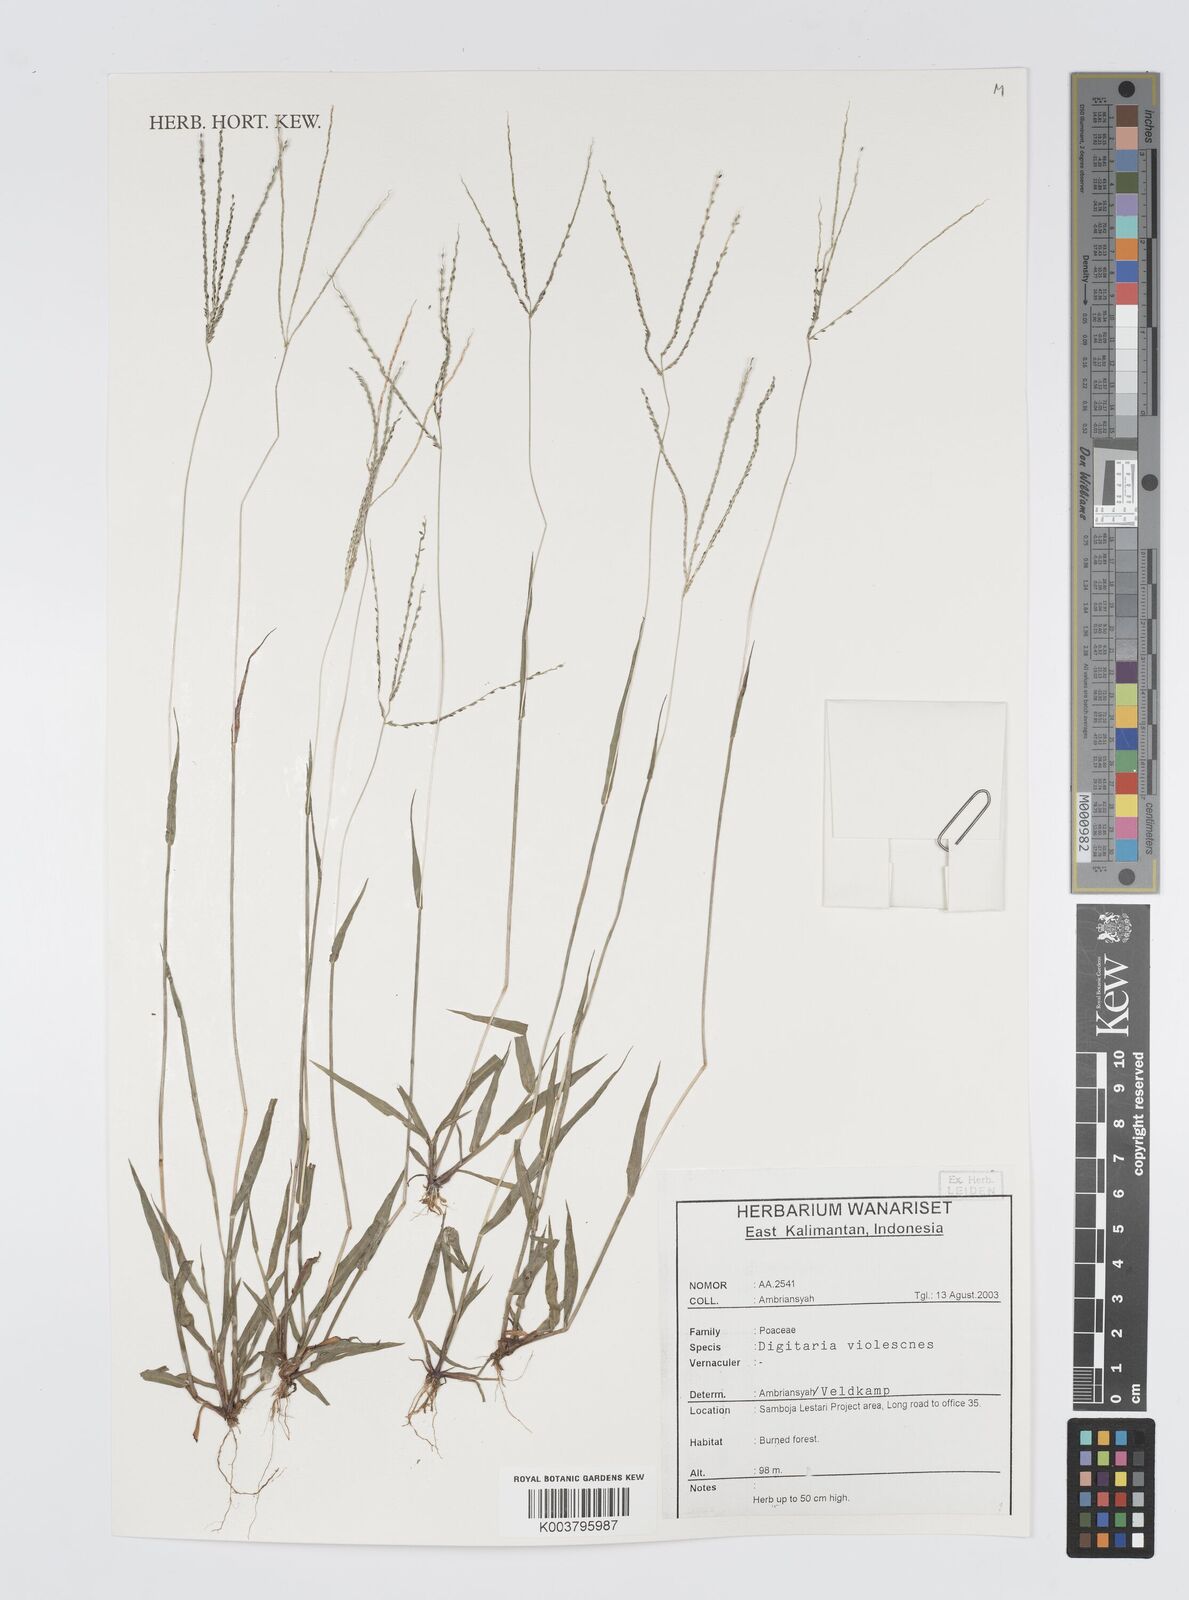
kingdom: Plantae
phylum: Tracheophyta
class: Liliopsida
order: Poales
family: Poaceae
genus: Digitaria
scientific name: Digitaria violascens
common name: Violet crabgrass
